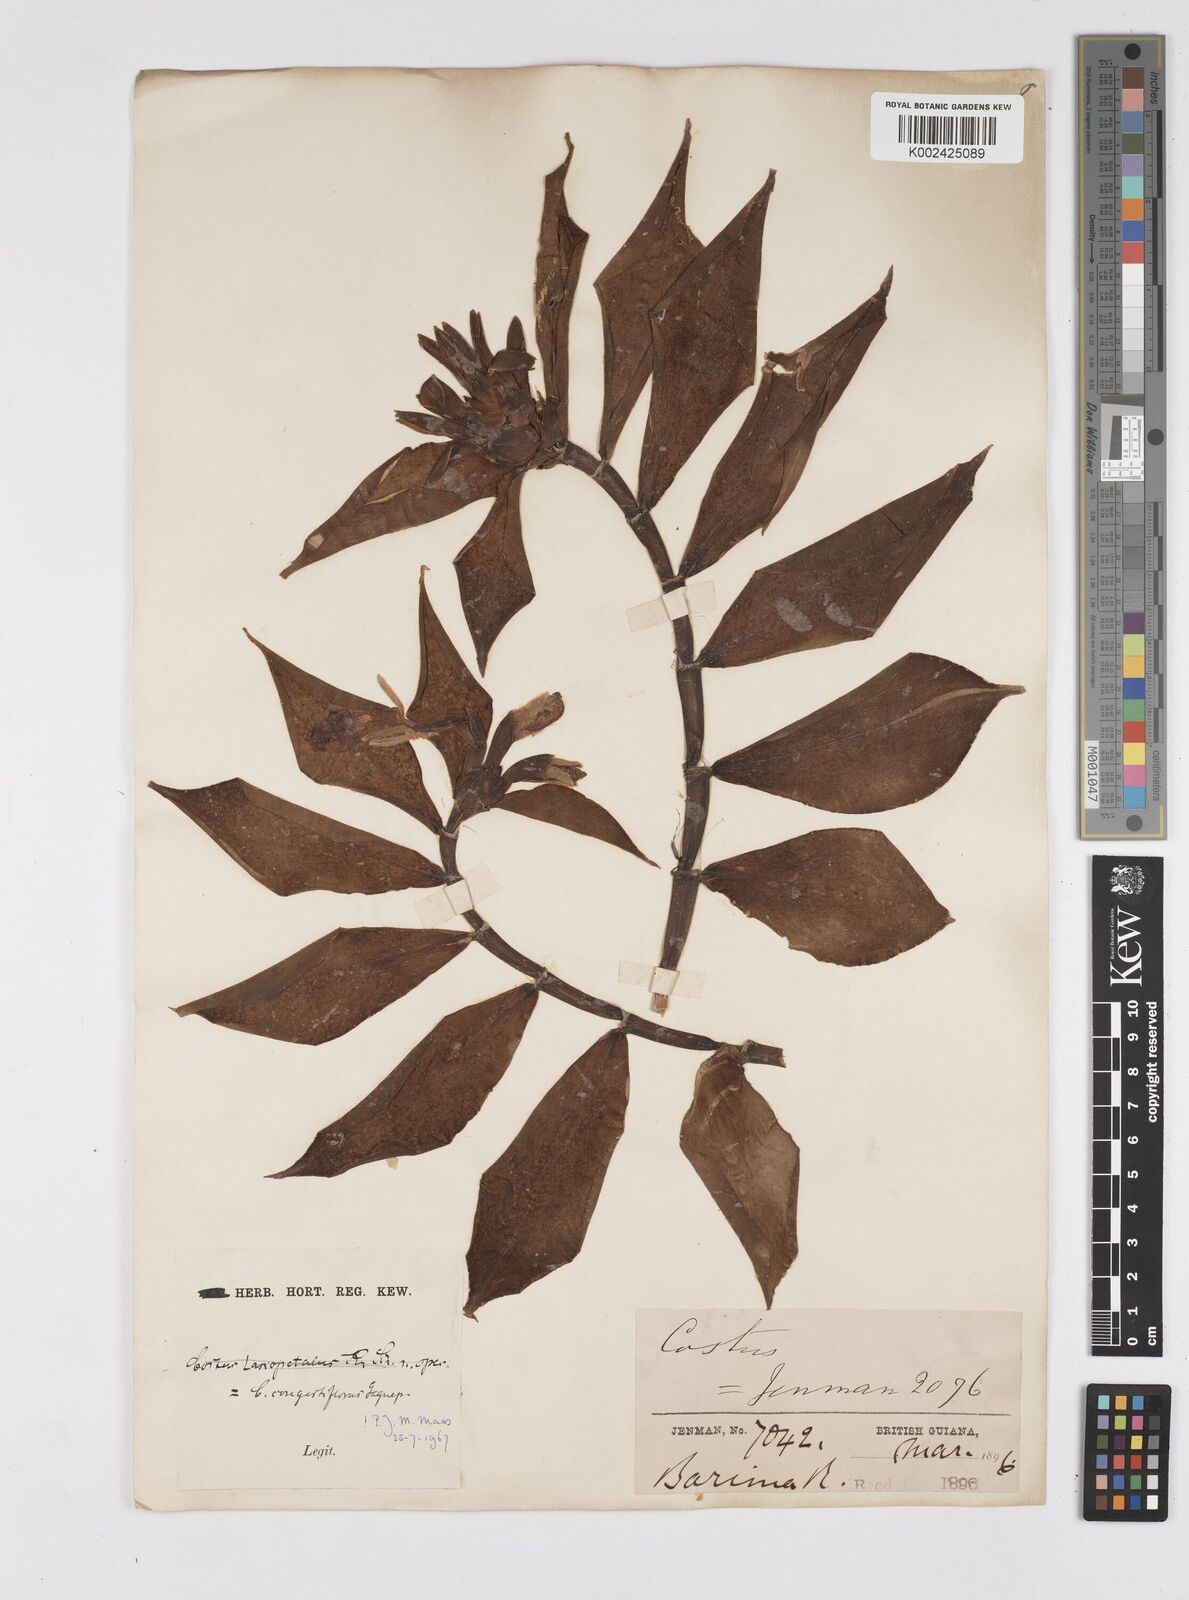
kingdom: Plantae
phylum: Tracheophyta
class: Liliopsida
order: Zingiberales
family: Costaceae
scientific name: Costaceae
